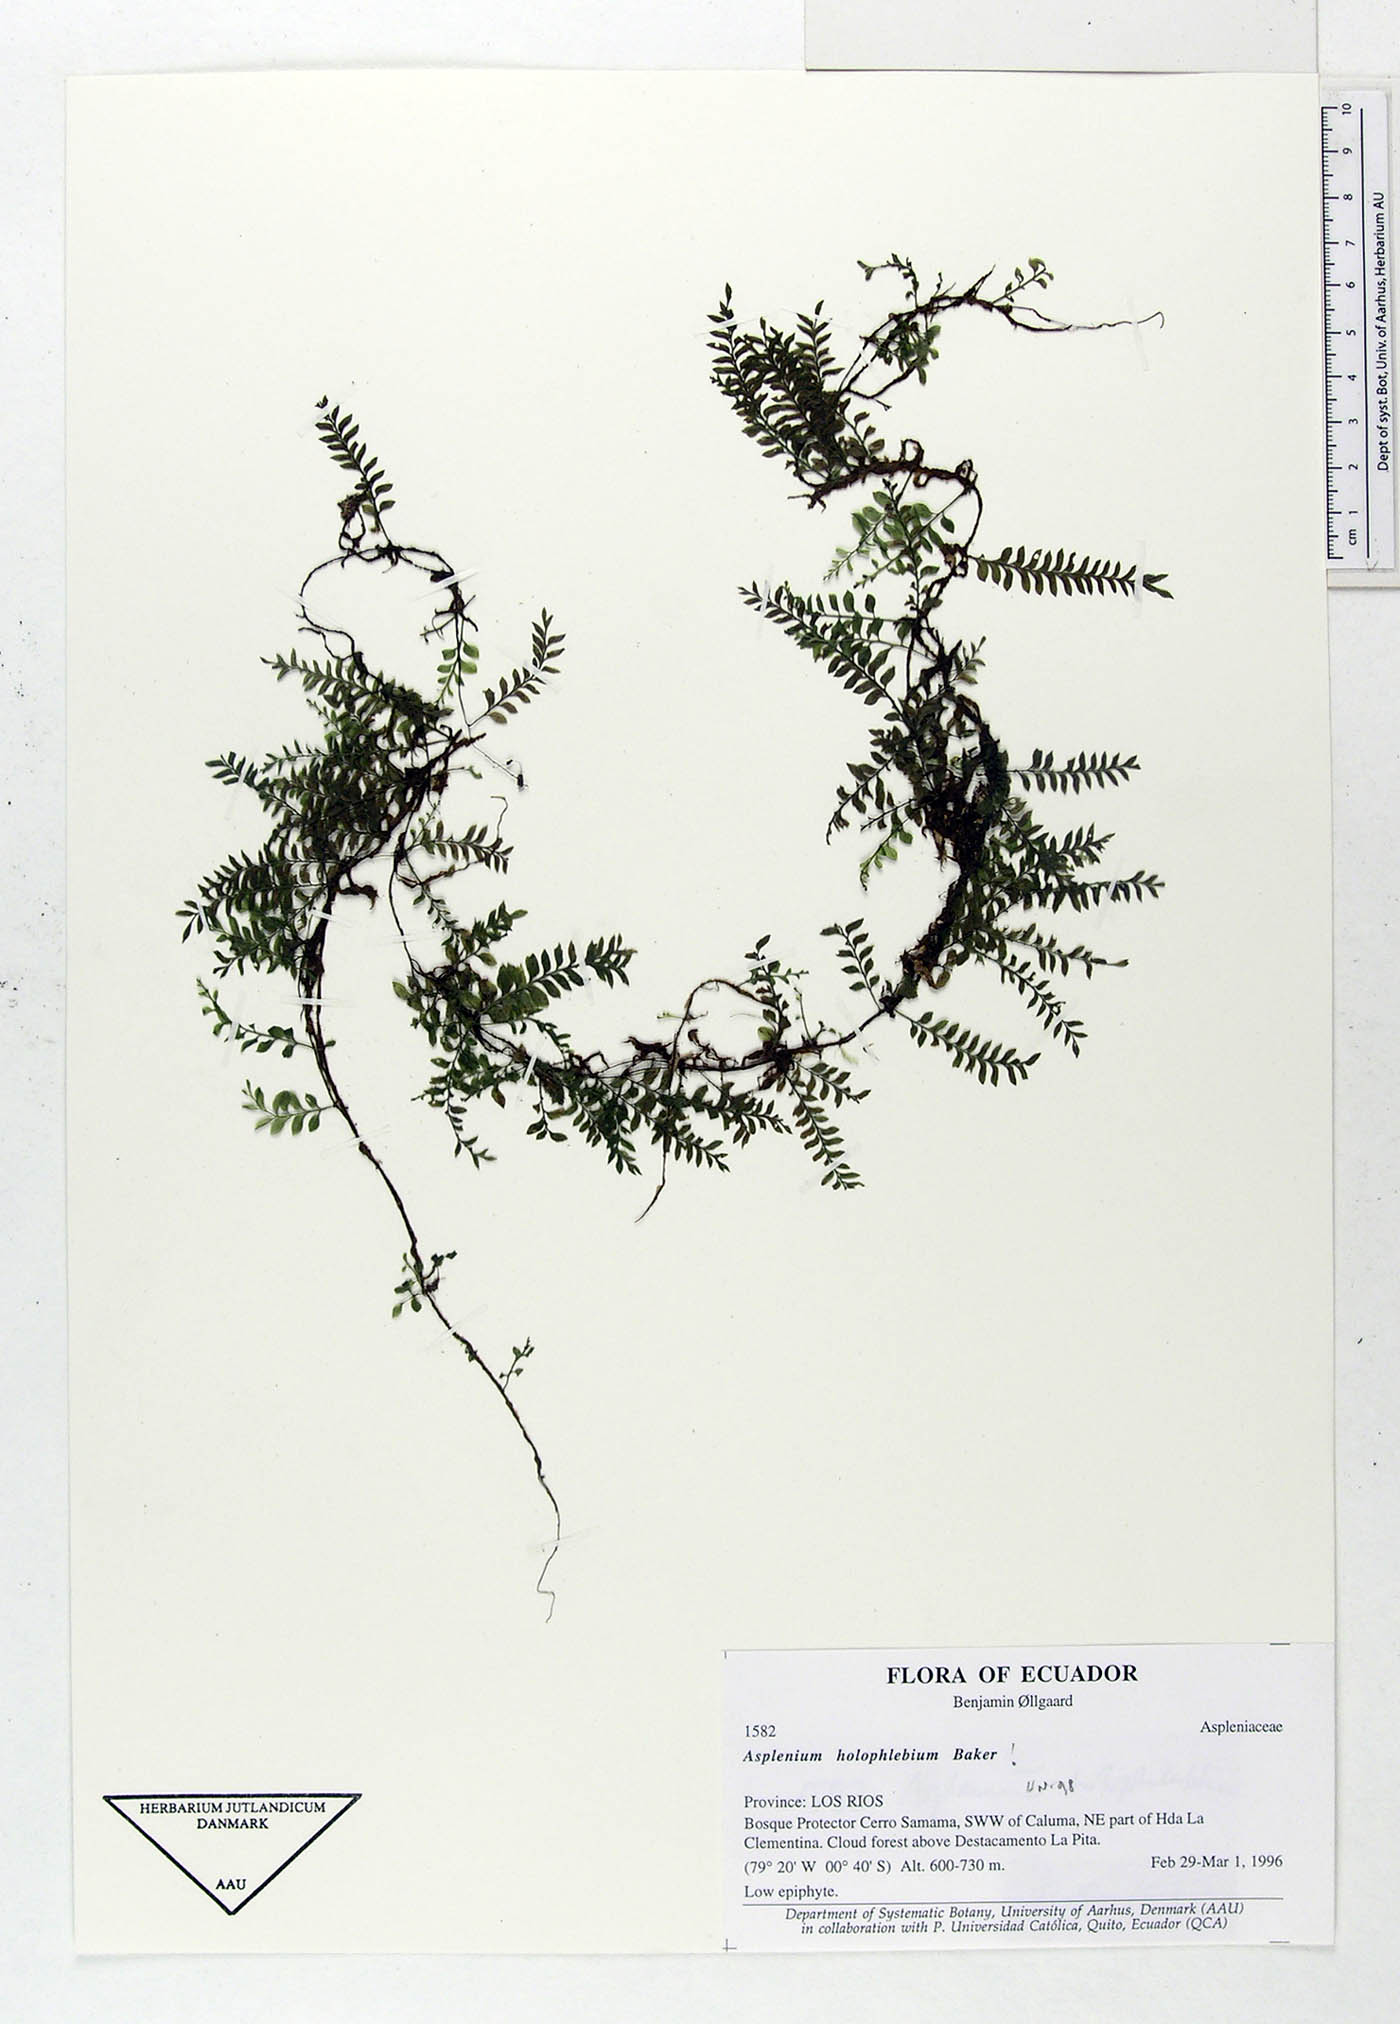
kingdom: Plantae
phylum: Tracheophyta
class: Polypodiopsida
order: Polypodiales
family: Aspleniaceae
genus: Asplenium
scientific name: Asplenium holophlebium
